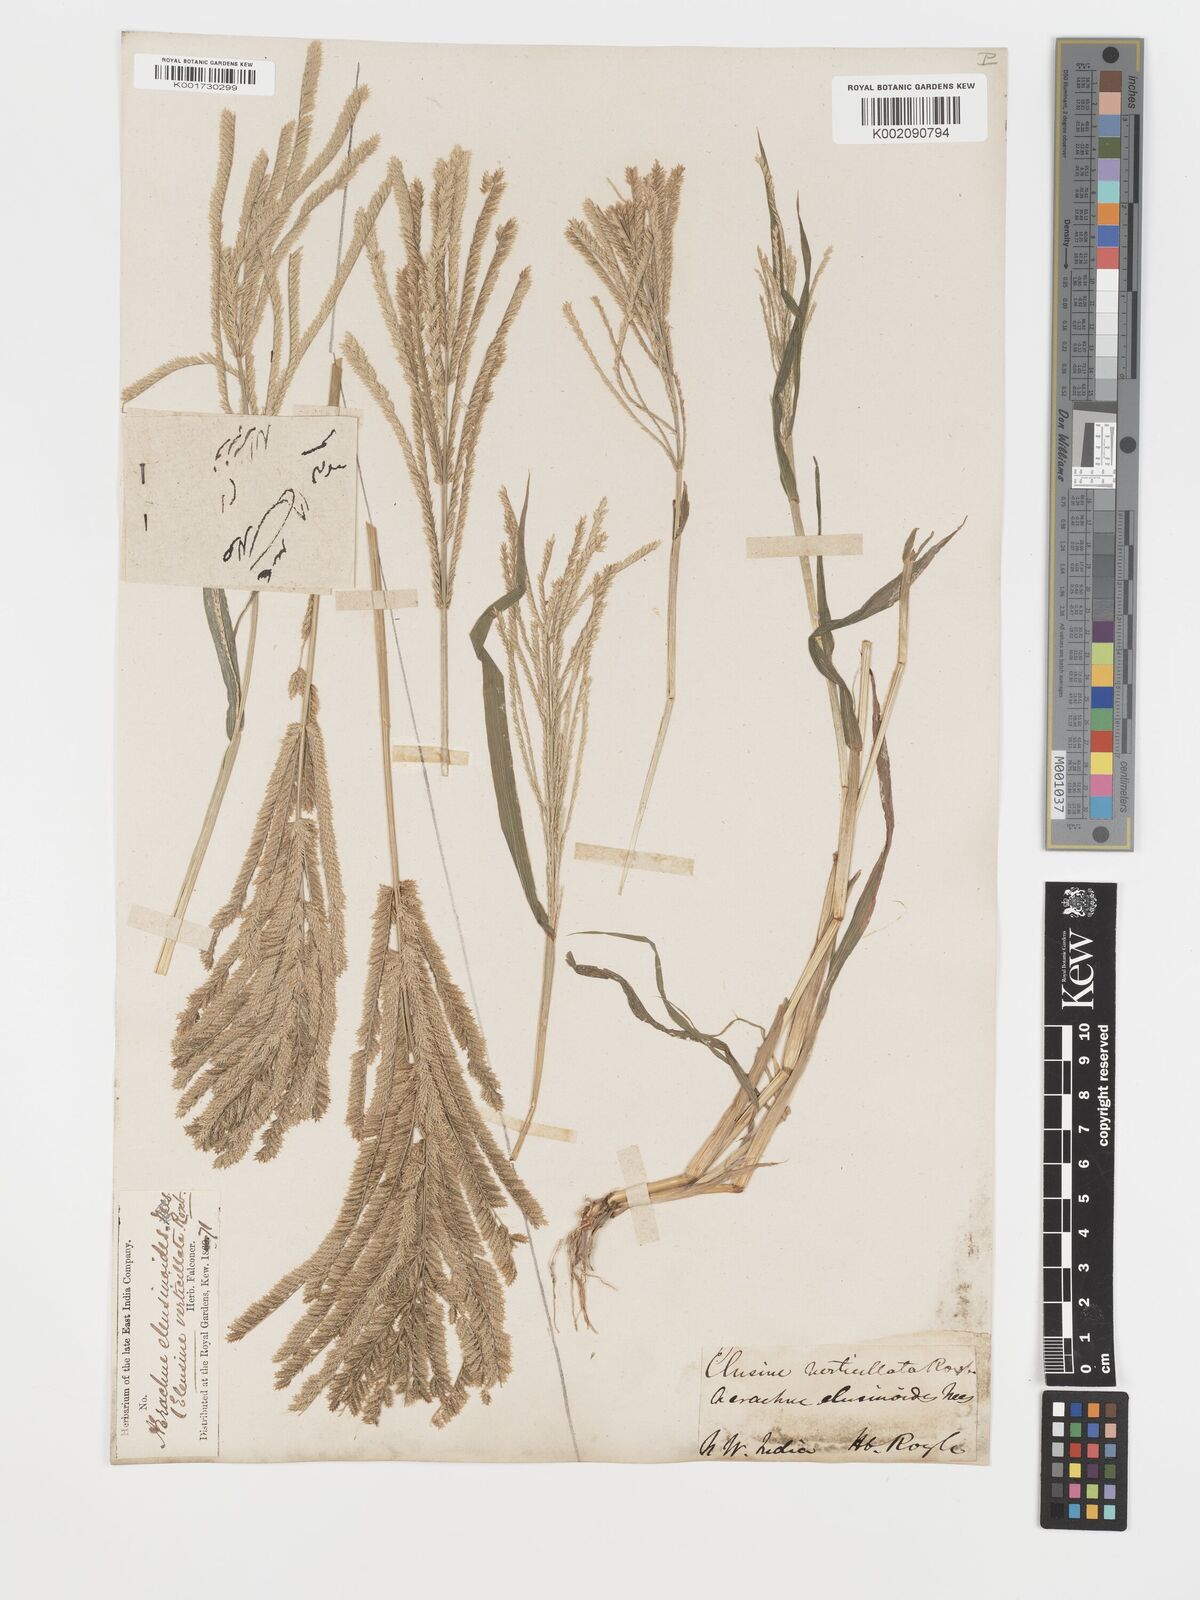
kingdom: Plantae
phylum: Tracheophyta
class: Liliopsida
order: Poales
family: Poaceae
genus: Acrachne
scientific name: Acrachne racemosa
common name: Goosegrass
